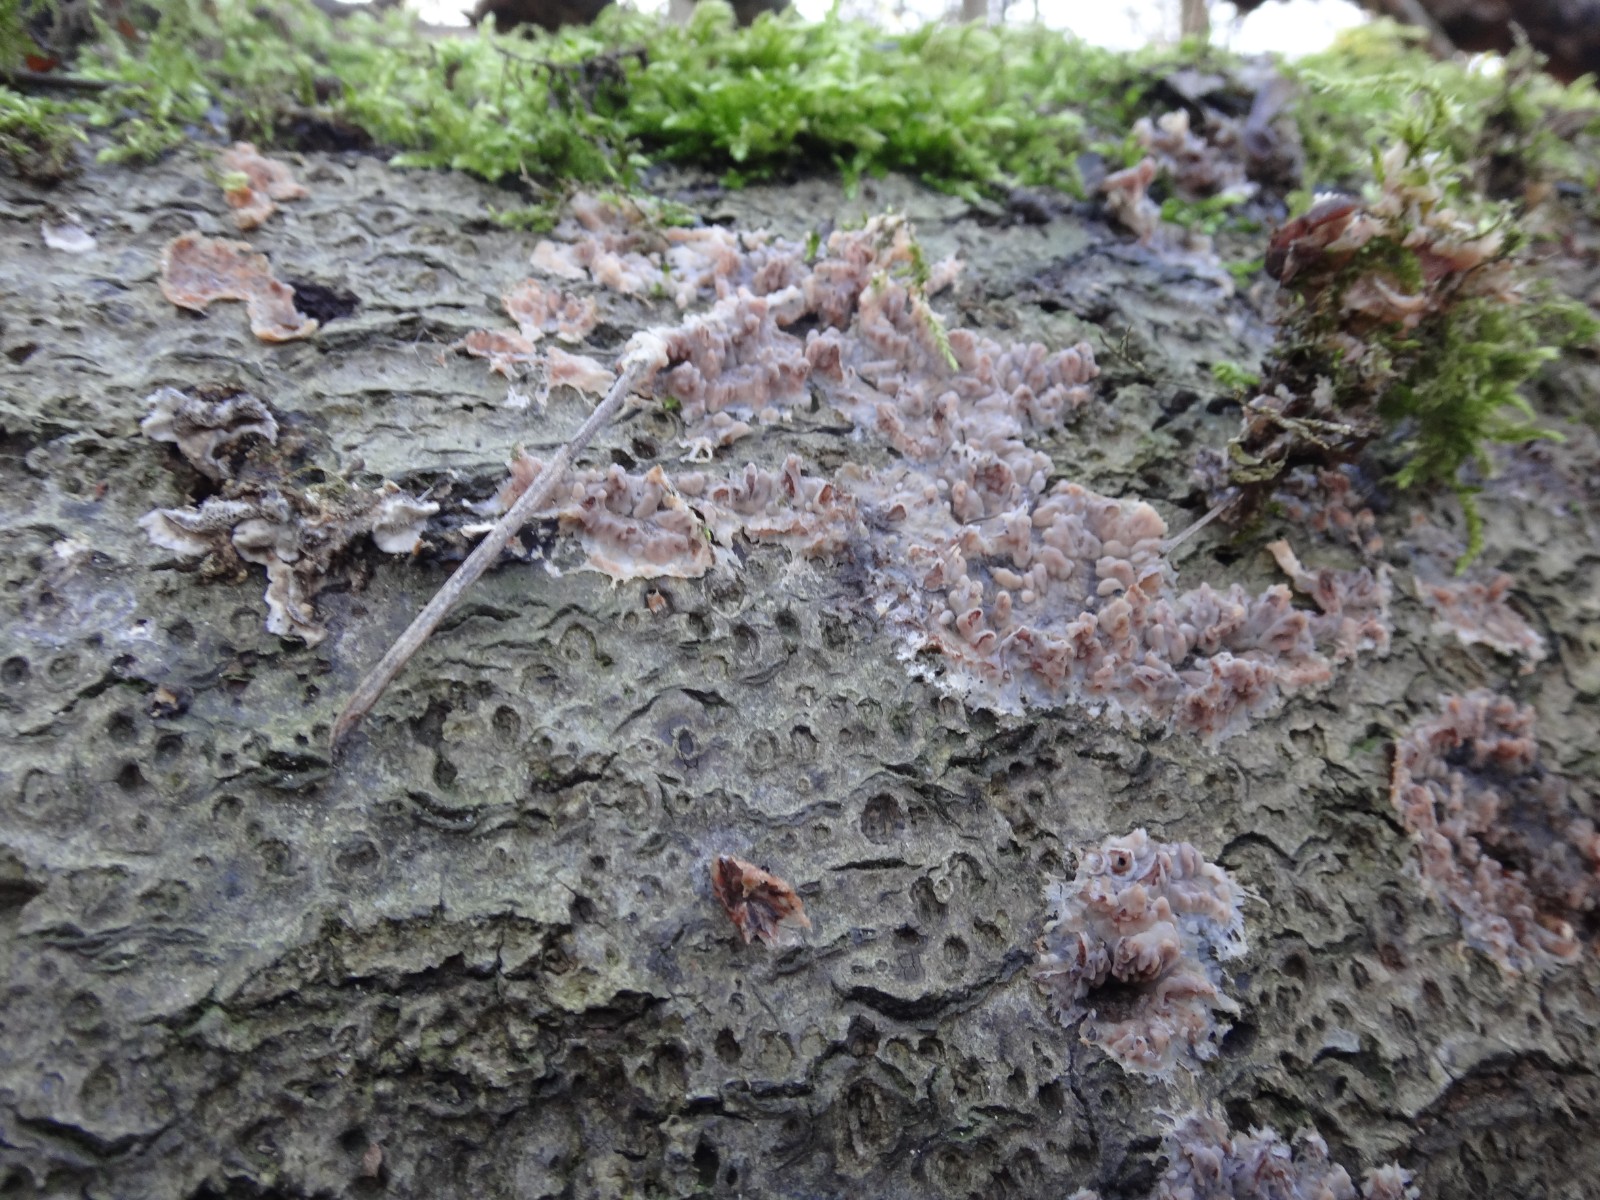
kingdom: Fungi
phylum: Basidiomycota
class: Agaricomycetes
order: Polyporales
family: Meruliaceae
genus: Cytidiella
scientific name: Cytidiella albida
